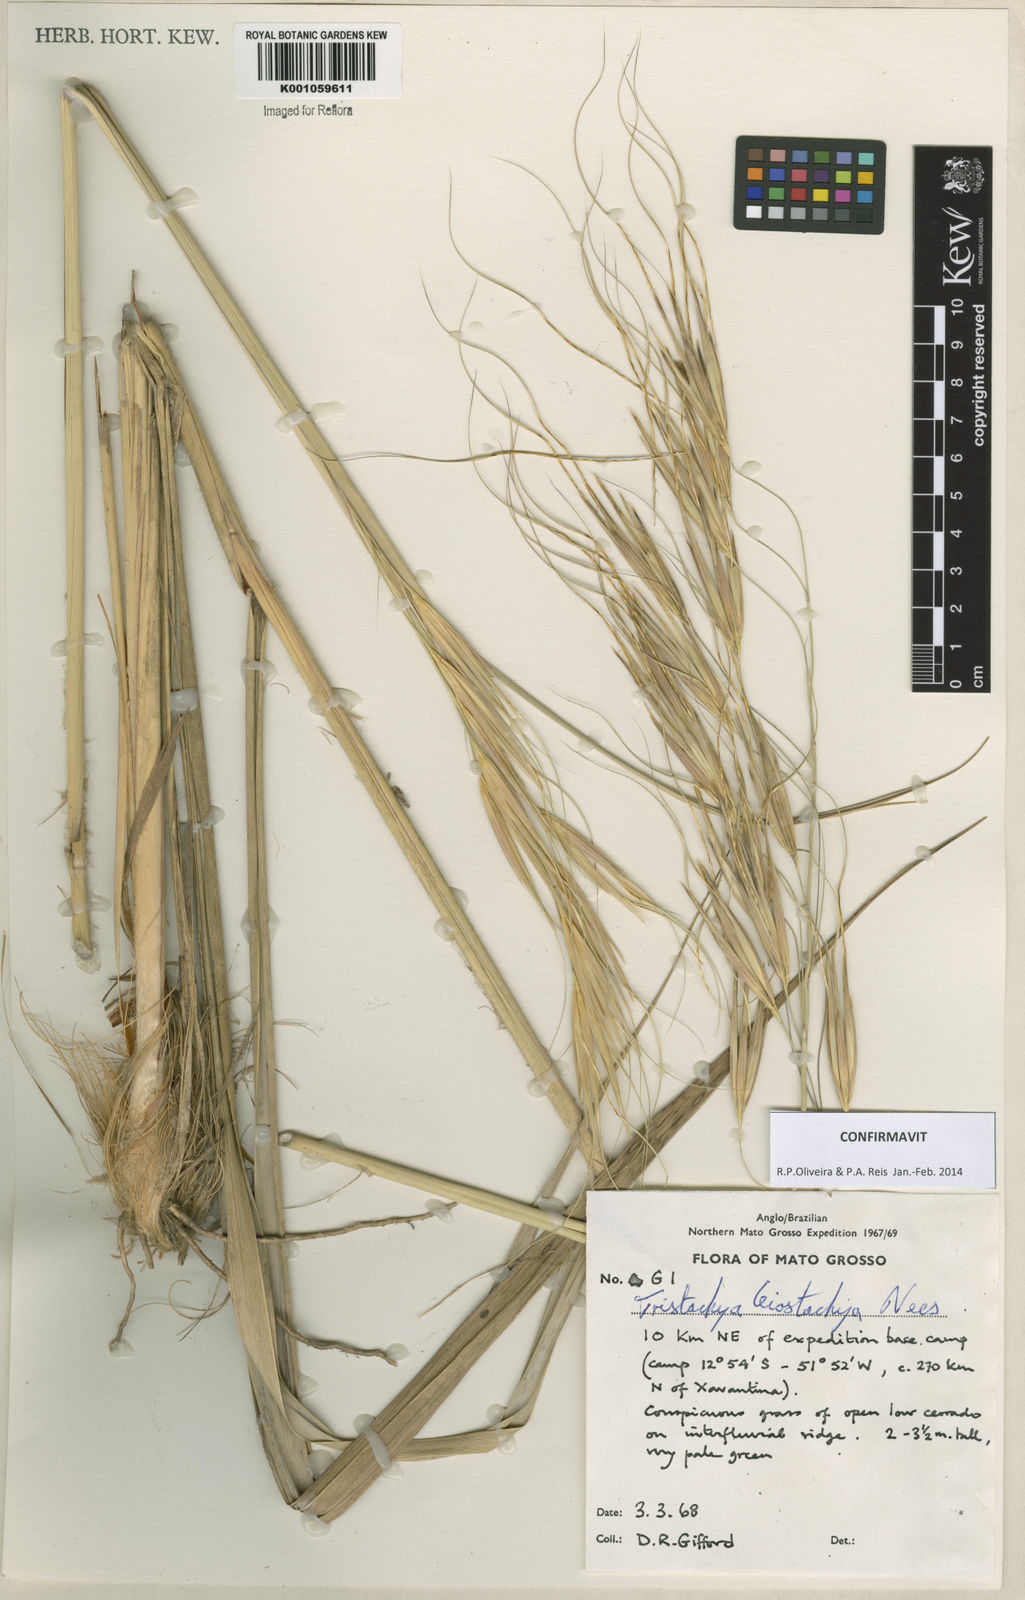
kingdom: Plantae
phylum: Tracheophyta
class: Liliopsida
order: Poales
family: Poaceae
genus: Tristachya
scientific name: Tristachya leiostachya
